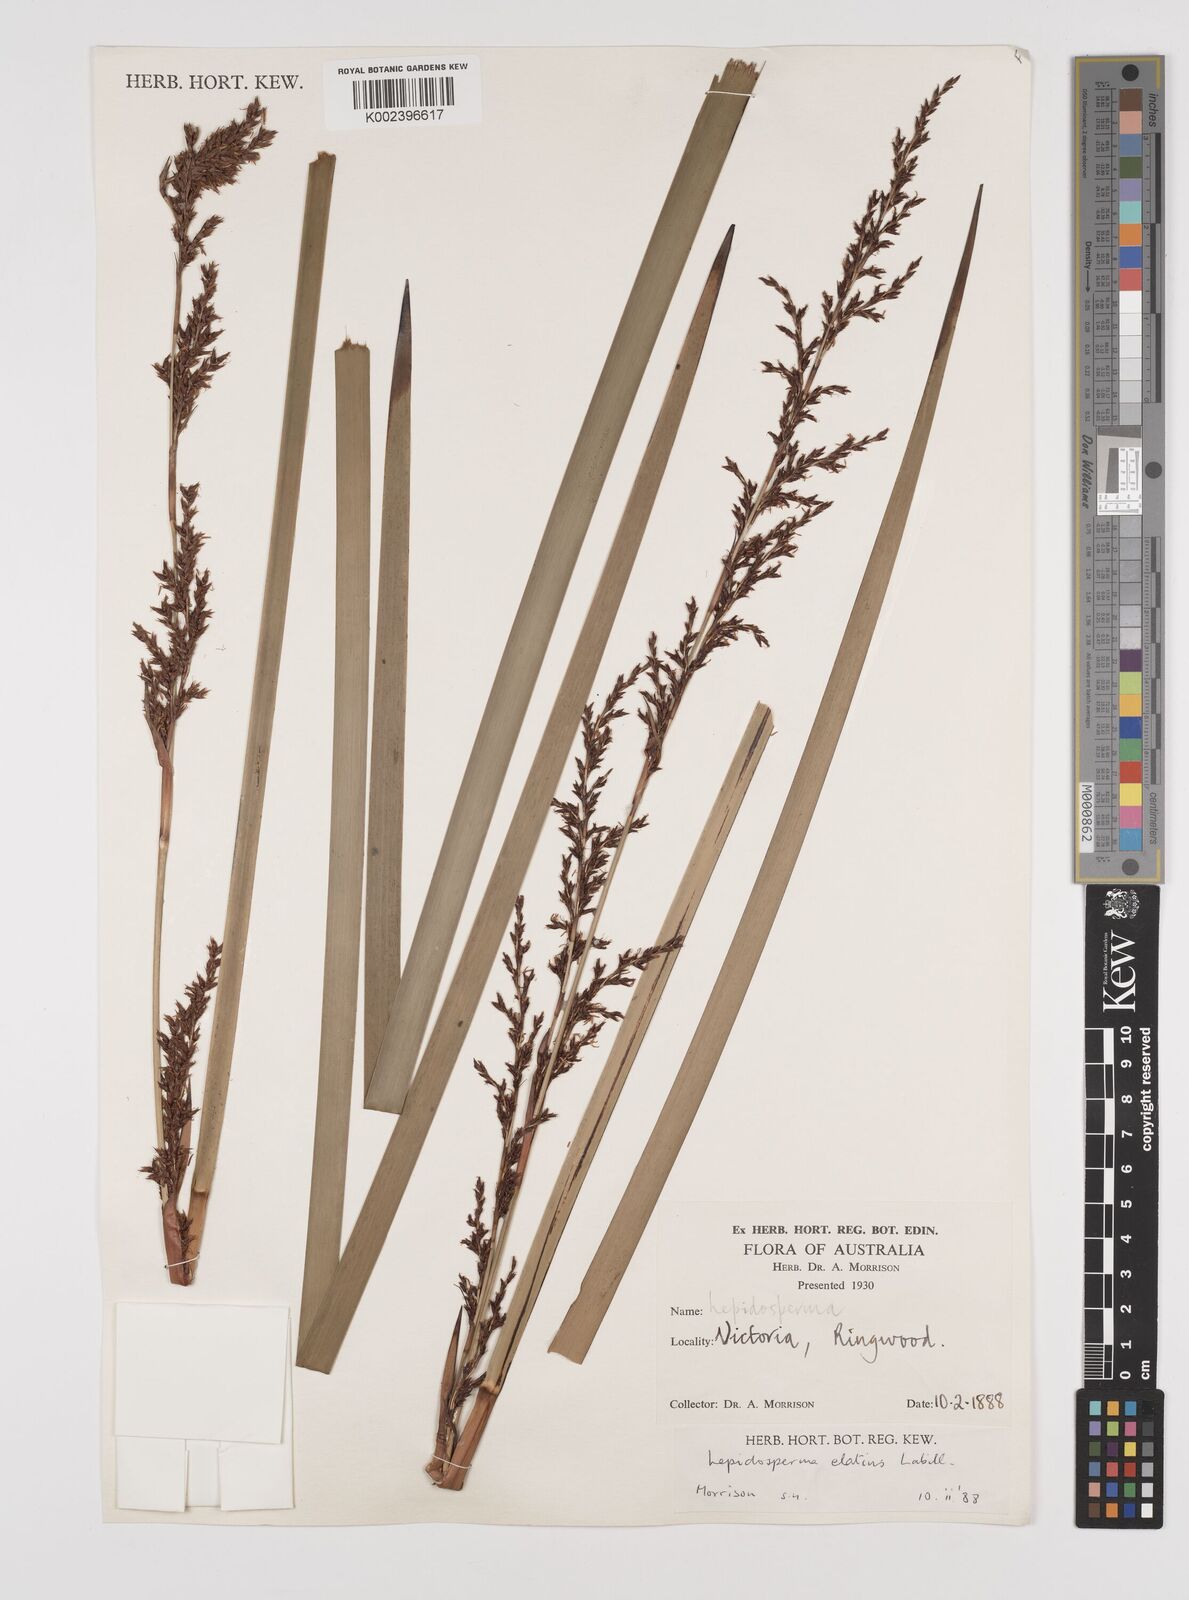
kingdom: Plantae
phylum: Tracheophyta
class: Liliopsida
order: Poales
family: Cyperaceae
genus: Lepidosperma
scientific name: Lepidosperma elatius
